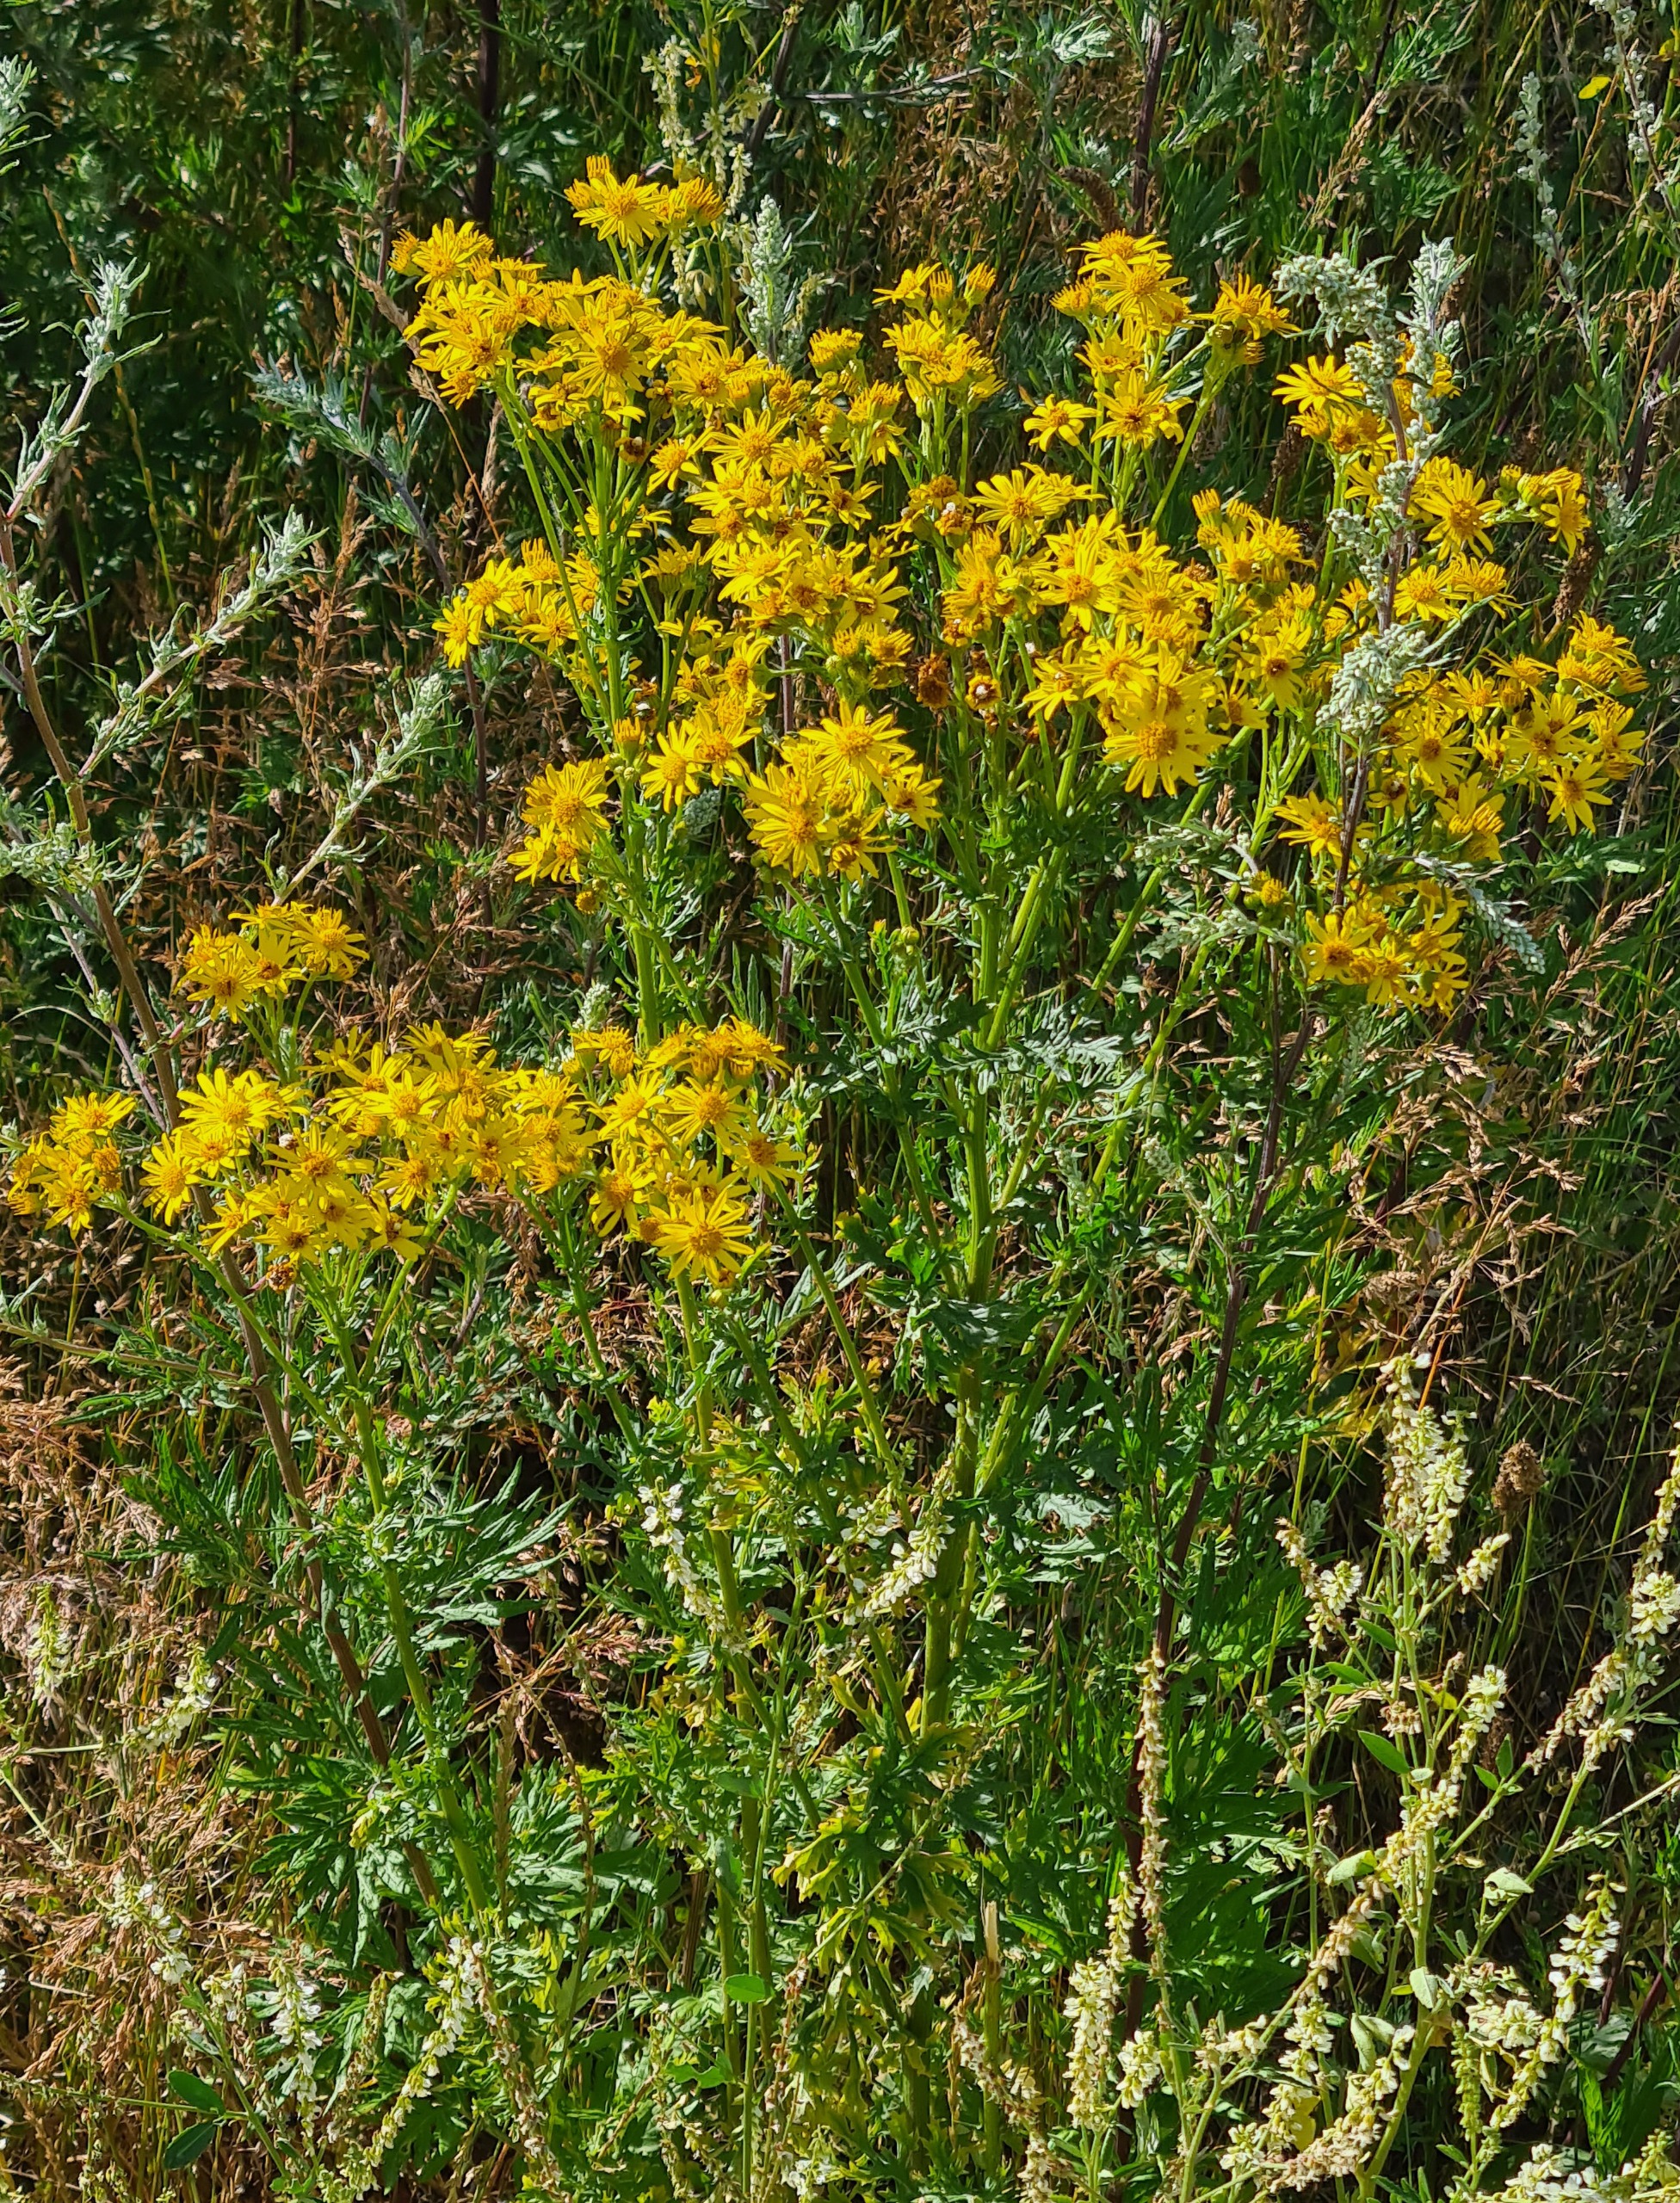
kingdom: Plantae
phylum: Tracheophyta
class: Magnoliopsida
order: Asterales
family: Asteraceae
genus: Jacobaea
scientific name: Jacobaea vulgaris
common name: Eng-brandbæger
